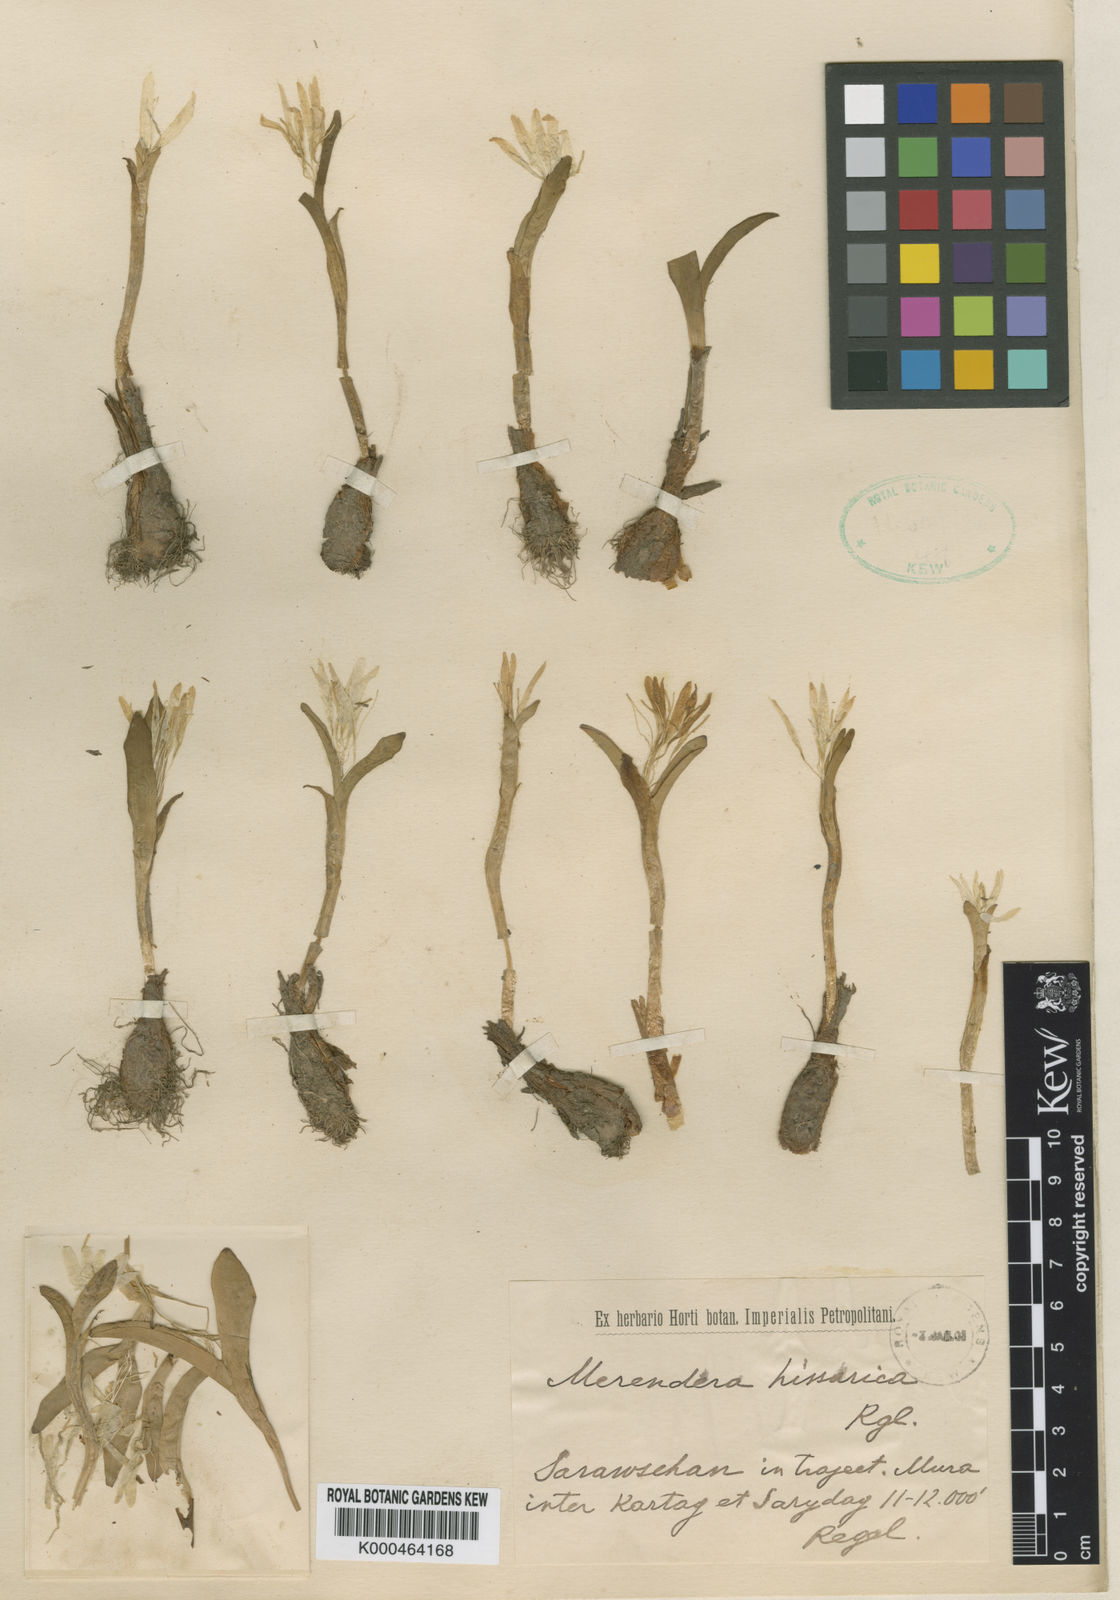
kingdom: Plantae
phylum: Tracheophyta
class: Liliopsida
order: Liliales
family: Colchicaceae
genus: Colchicum
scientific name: Colchicum robustum
